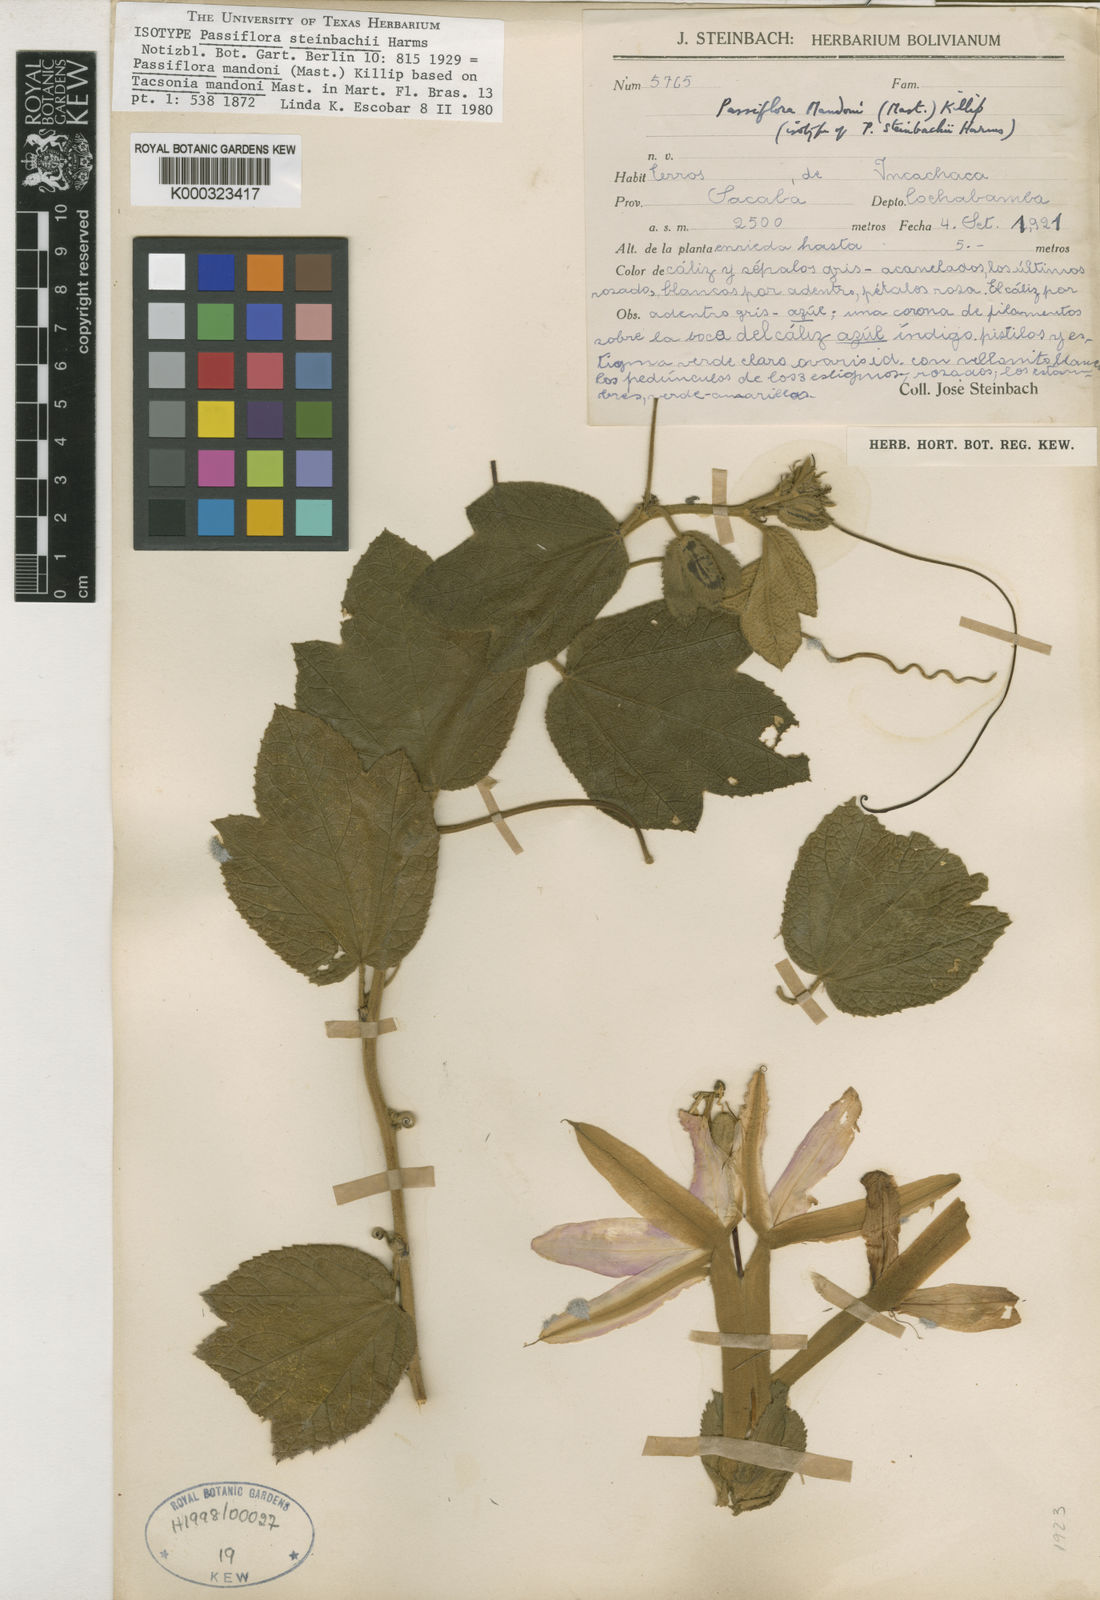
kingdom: Plantae
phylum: Tracheophyta
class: Magnoliopsida
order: Malpighiales
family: Passifloraceae
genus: Passiflora
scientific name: Passiflora mandonii
